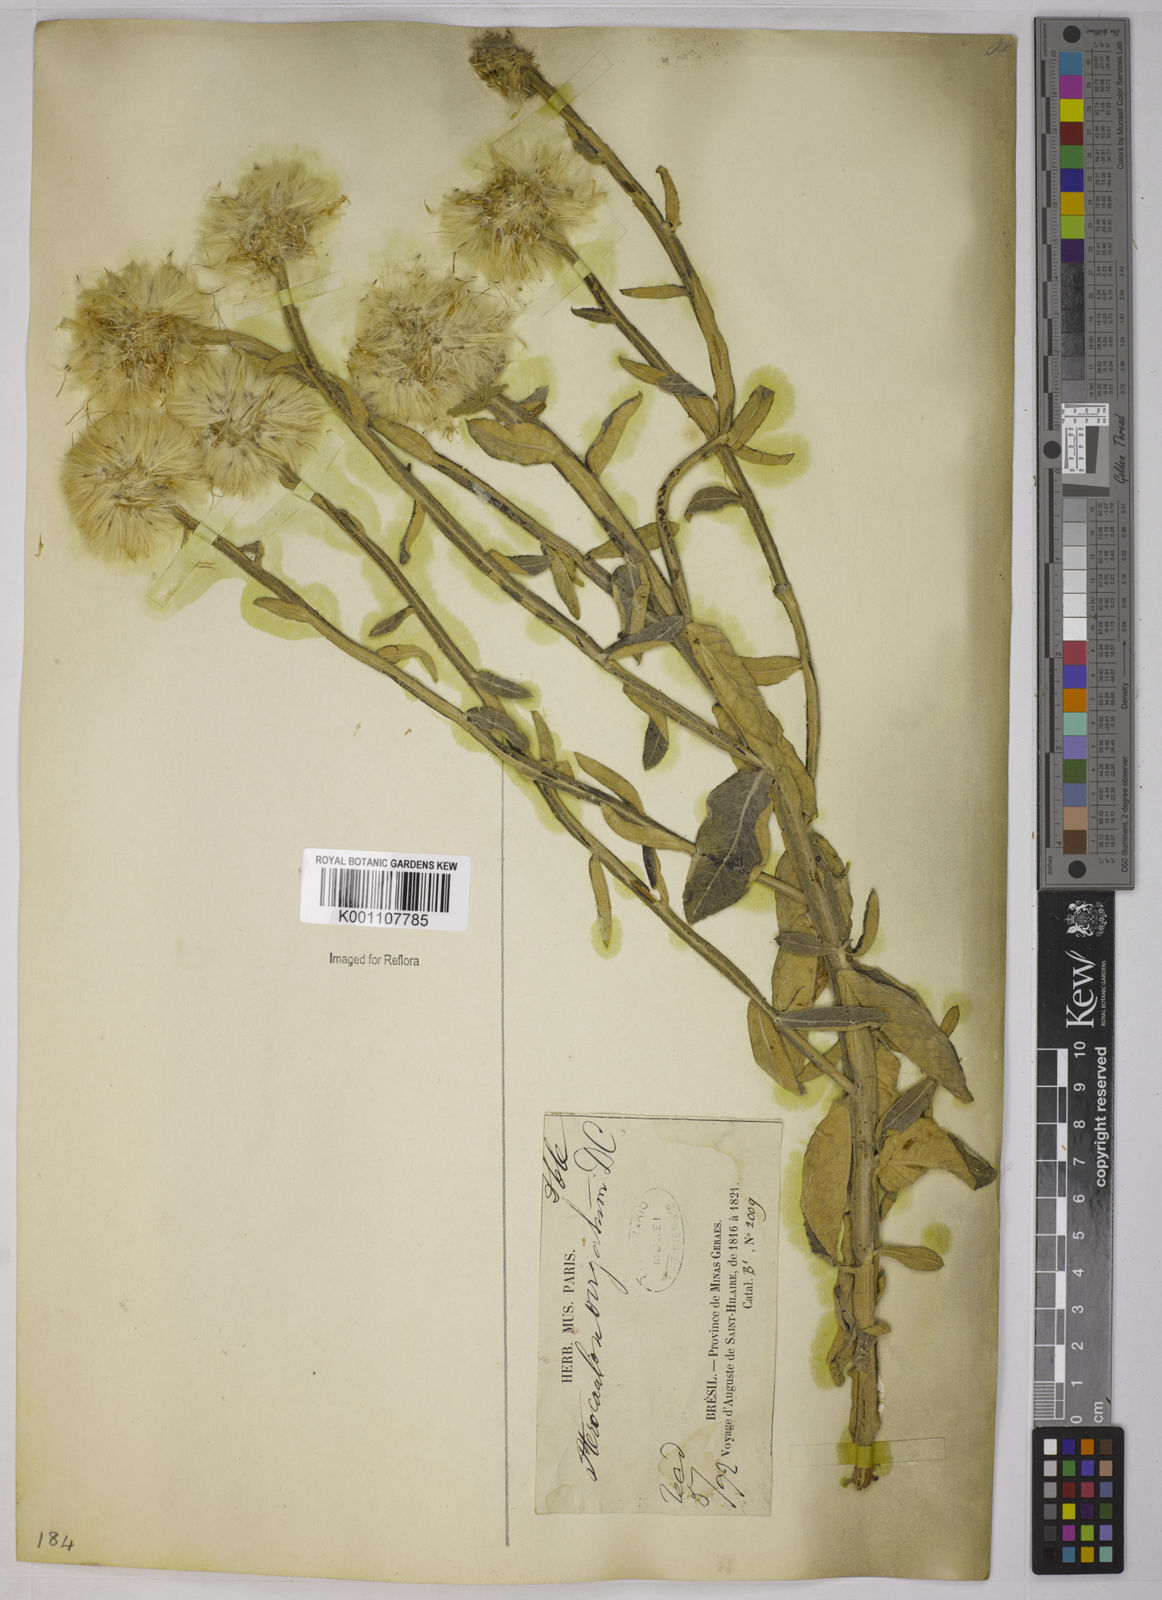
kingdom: Plantae
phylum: Tracheophyta
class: Magnoliopsida
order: Asterales
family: Asteraceae
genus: Pterocaulon
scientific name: Pterocaulon angustifolium
